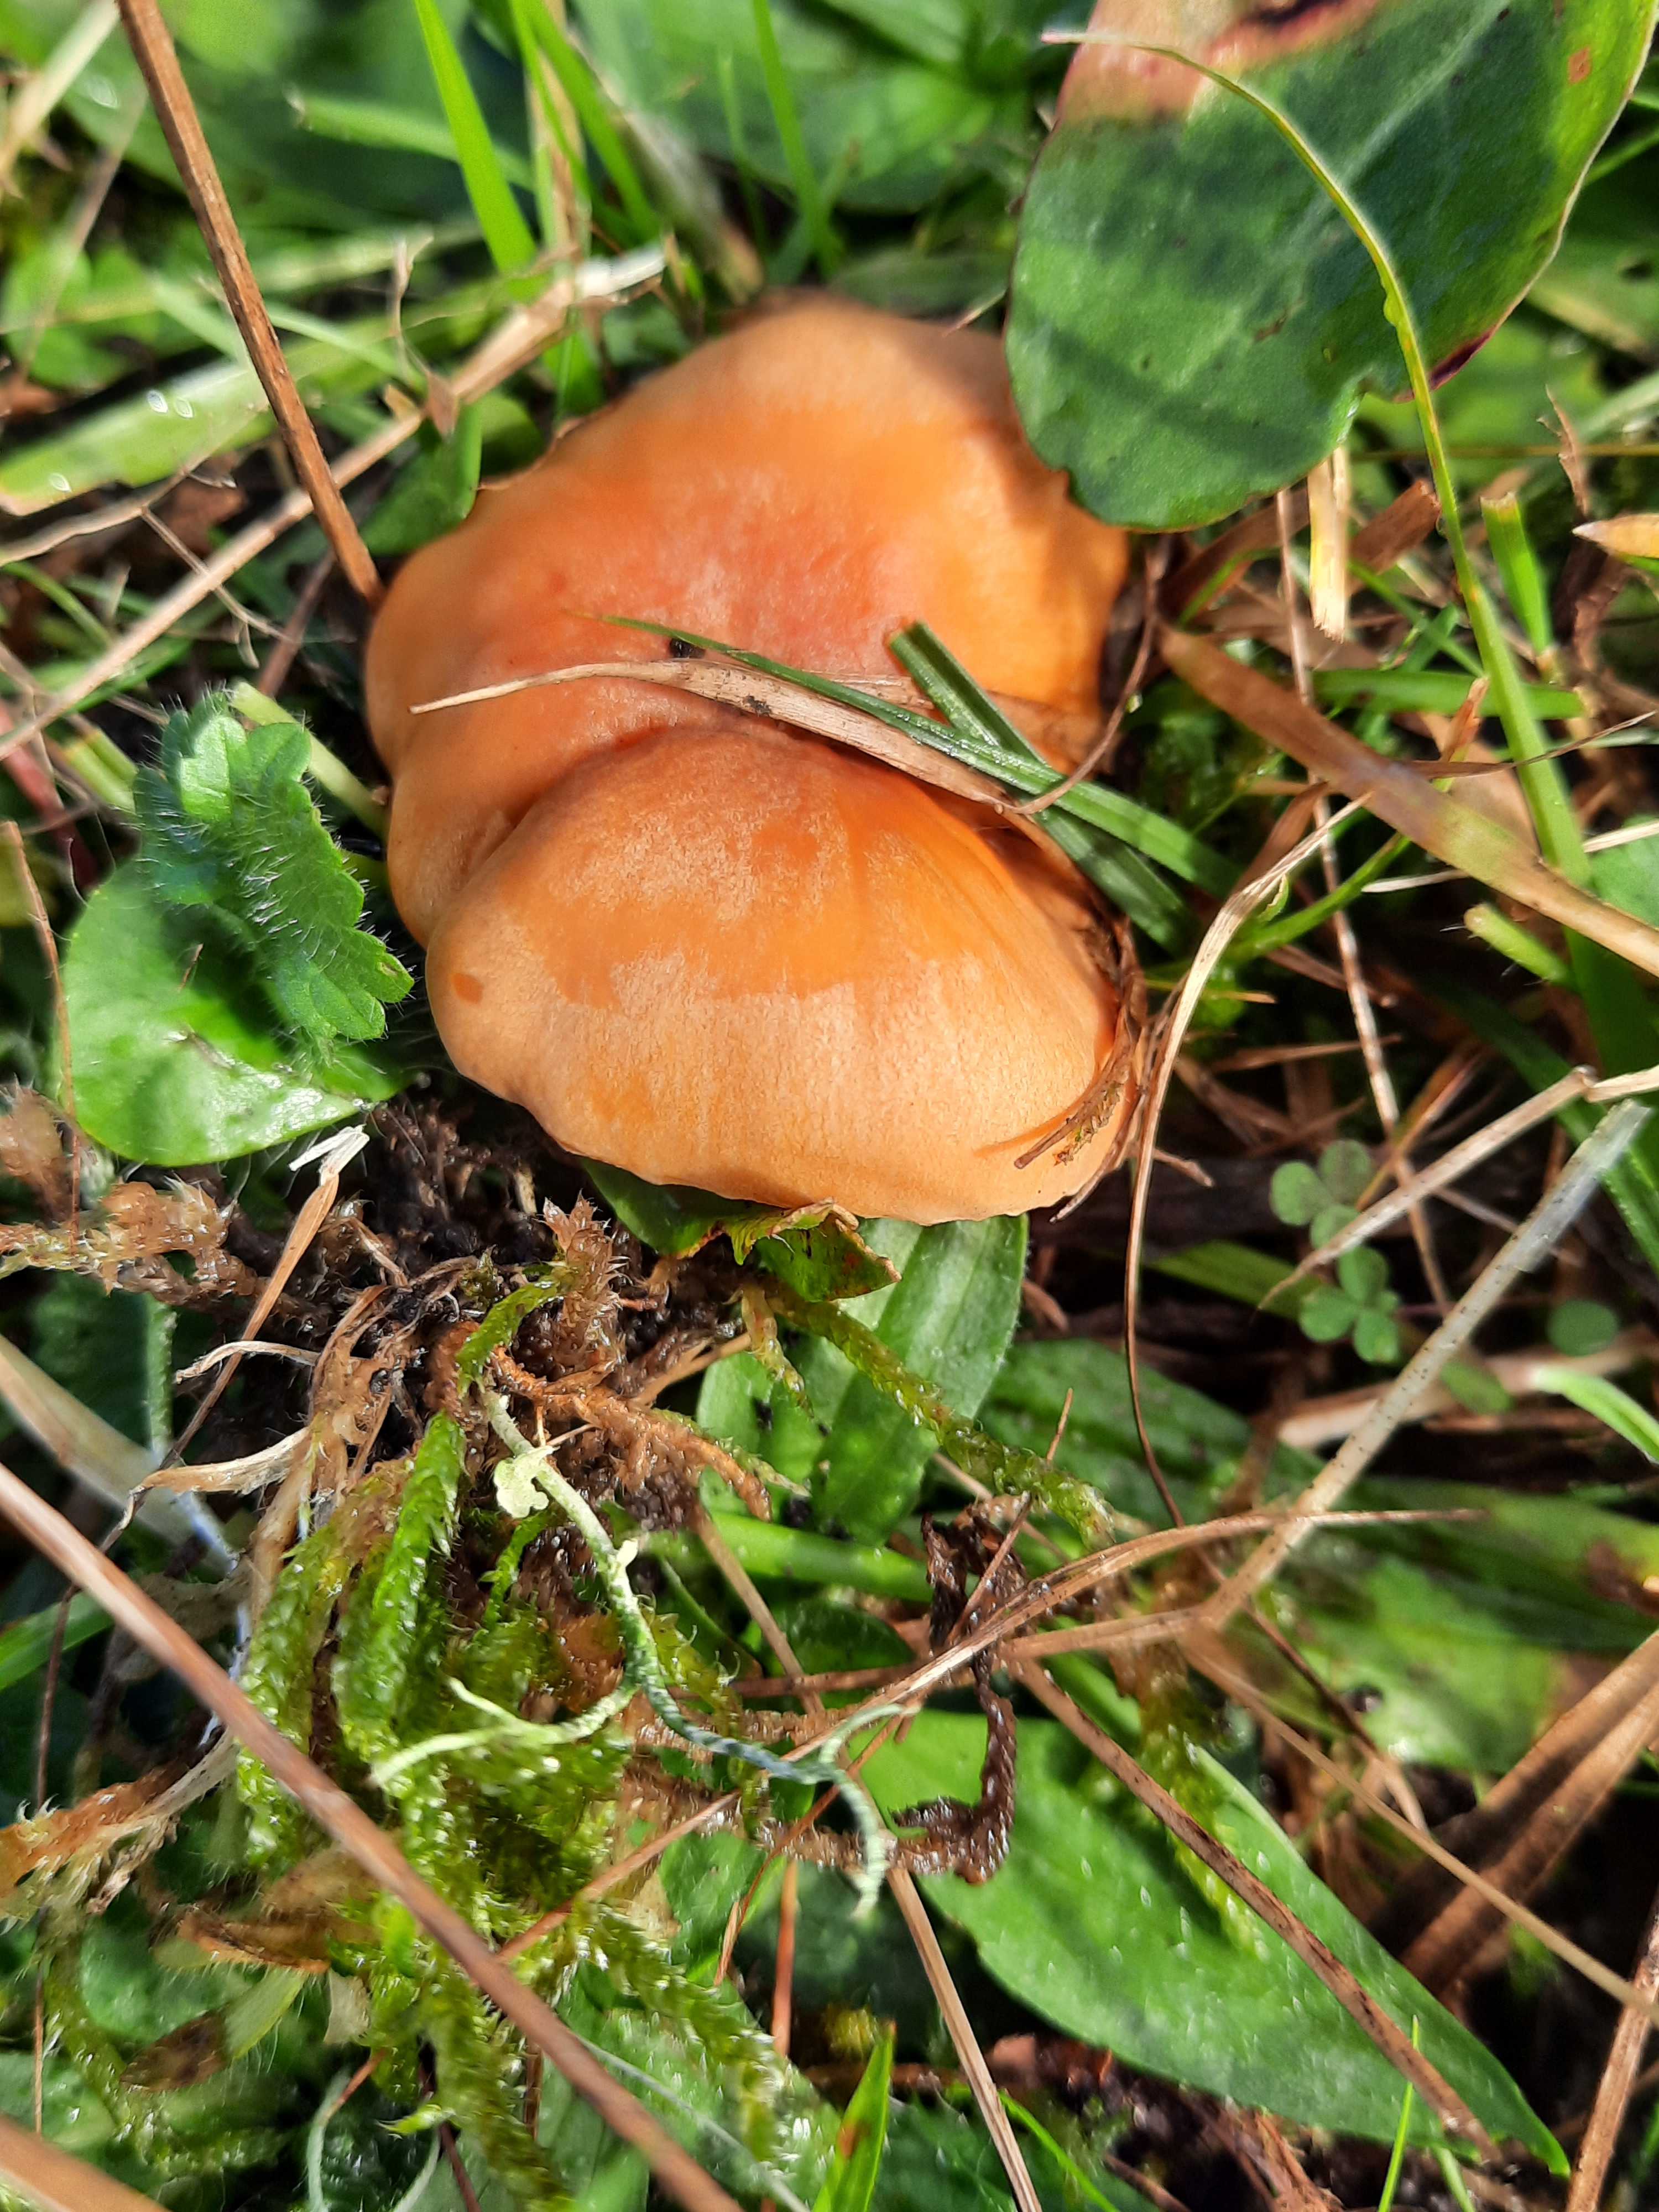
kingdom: Fungi
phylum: Basidiomycota
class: Agaricomycetes
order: Agaricales
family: Hygrophoraceae
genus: Cuphophyllus
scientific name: Cuphophyllus pratensis
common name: eng-vokshat
